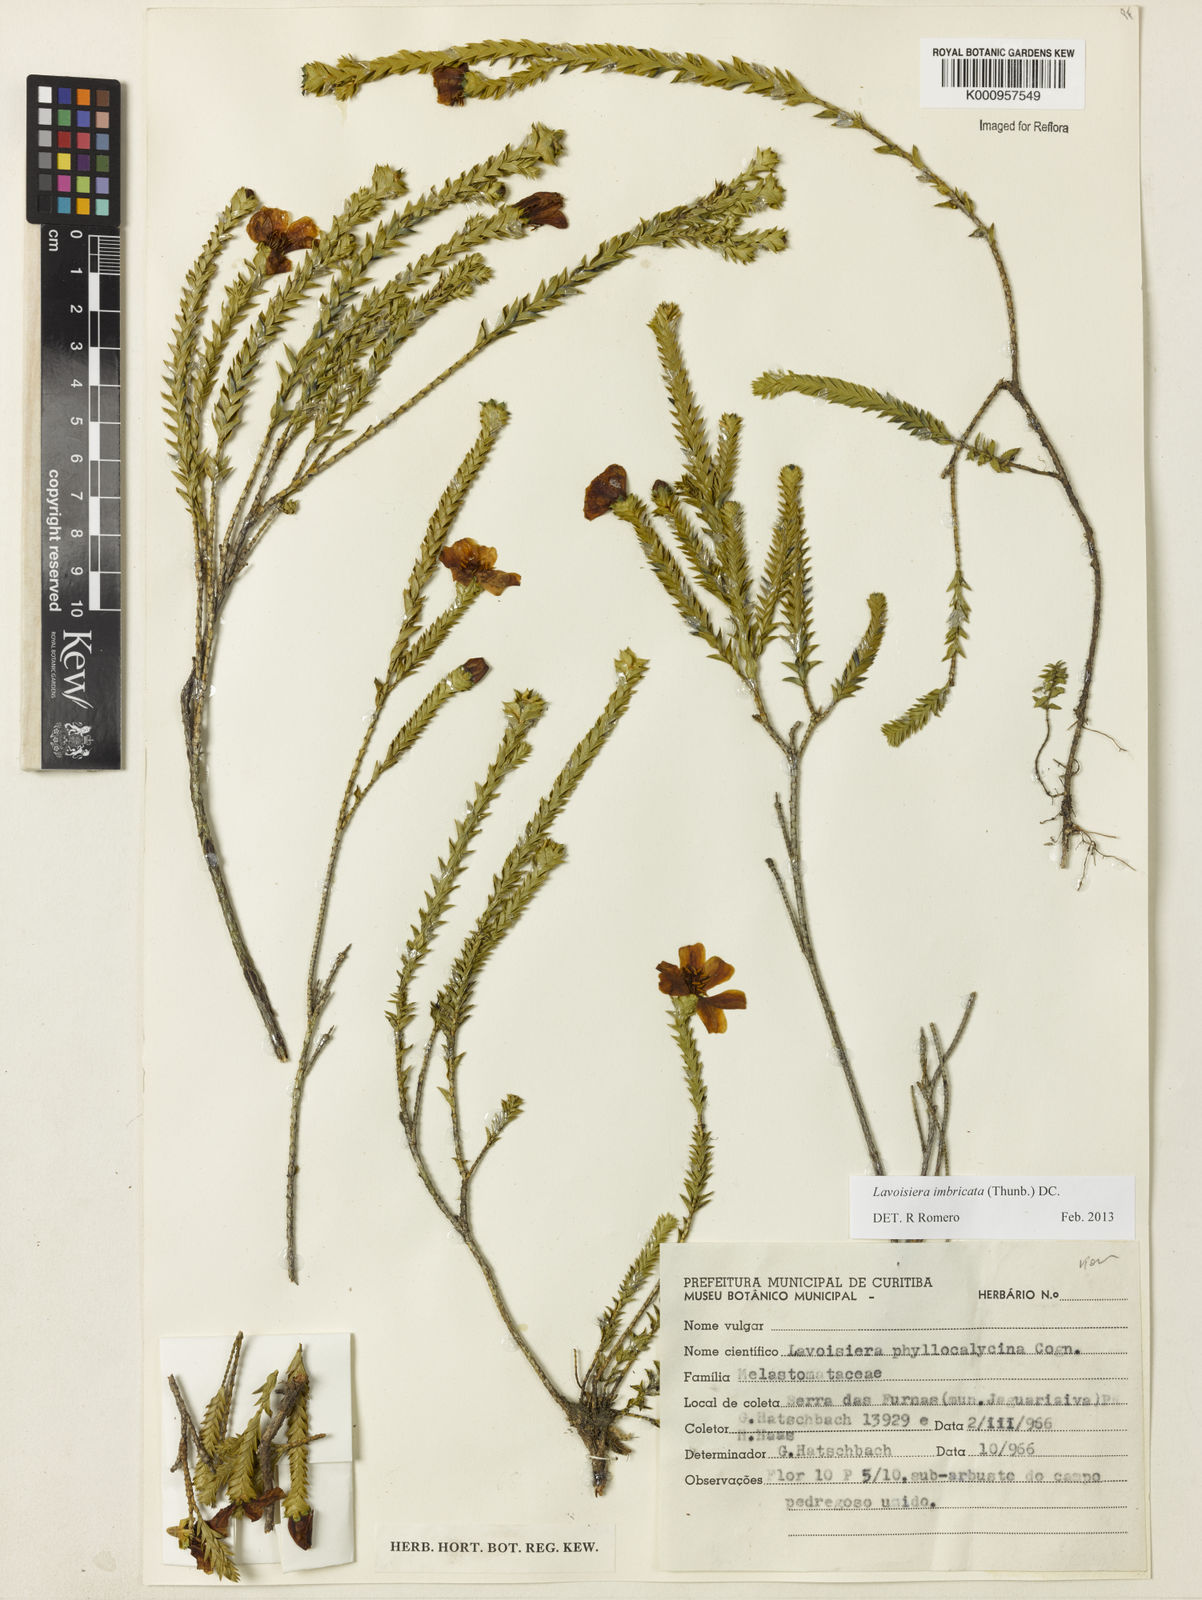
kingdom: Plantae
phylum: Tracheophyta
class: Magnoliopsida
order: Myrtales
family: Melastomataceae
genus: Microlicia
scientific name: Microlicia cataphracta
